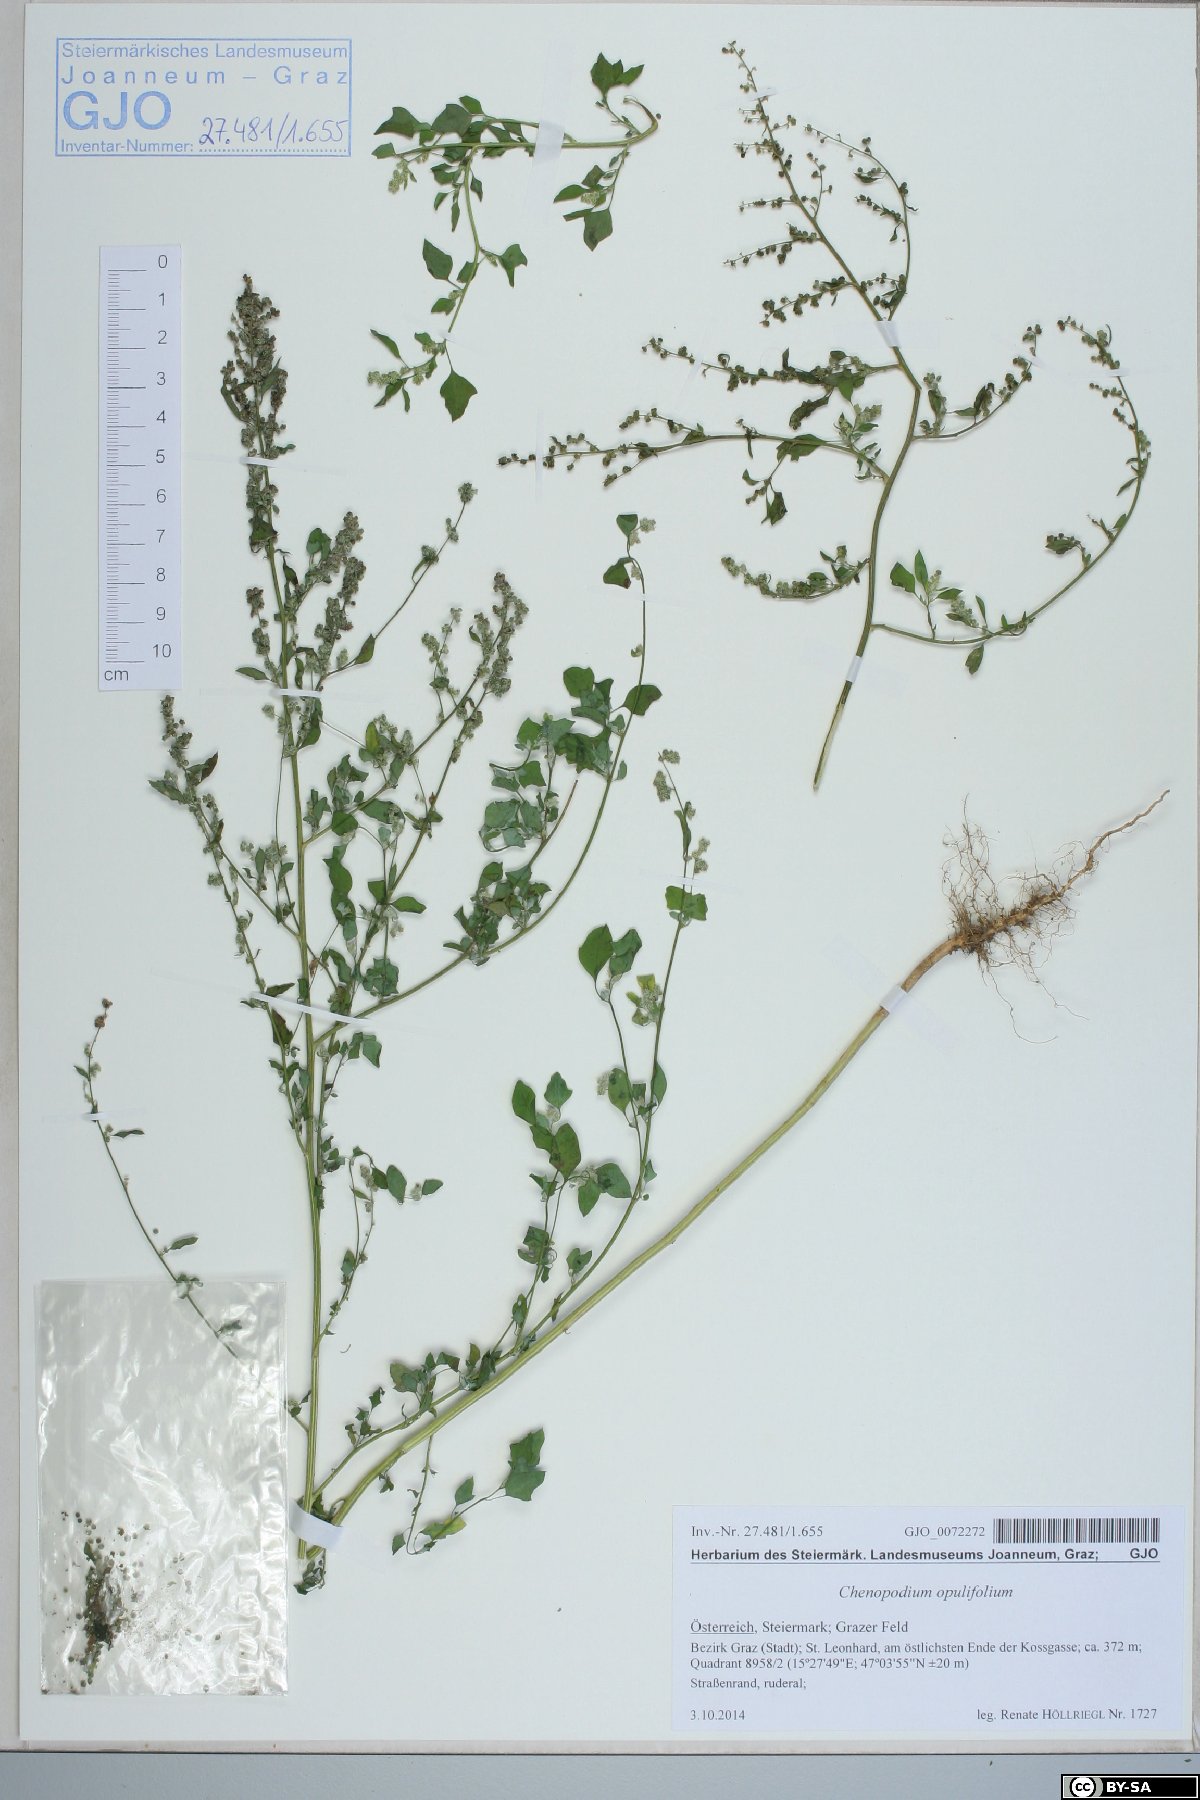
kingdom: Plantae
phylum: Tracheophyta
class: Magnoliopsida
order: Caryophyllales
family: Amaranthaceae
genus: Chenopodium
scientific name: Chenopodium opulifolium
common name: Grey goosefoot
